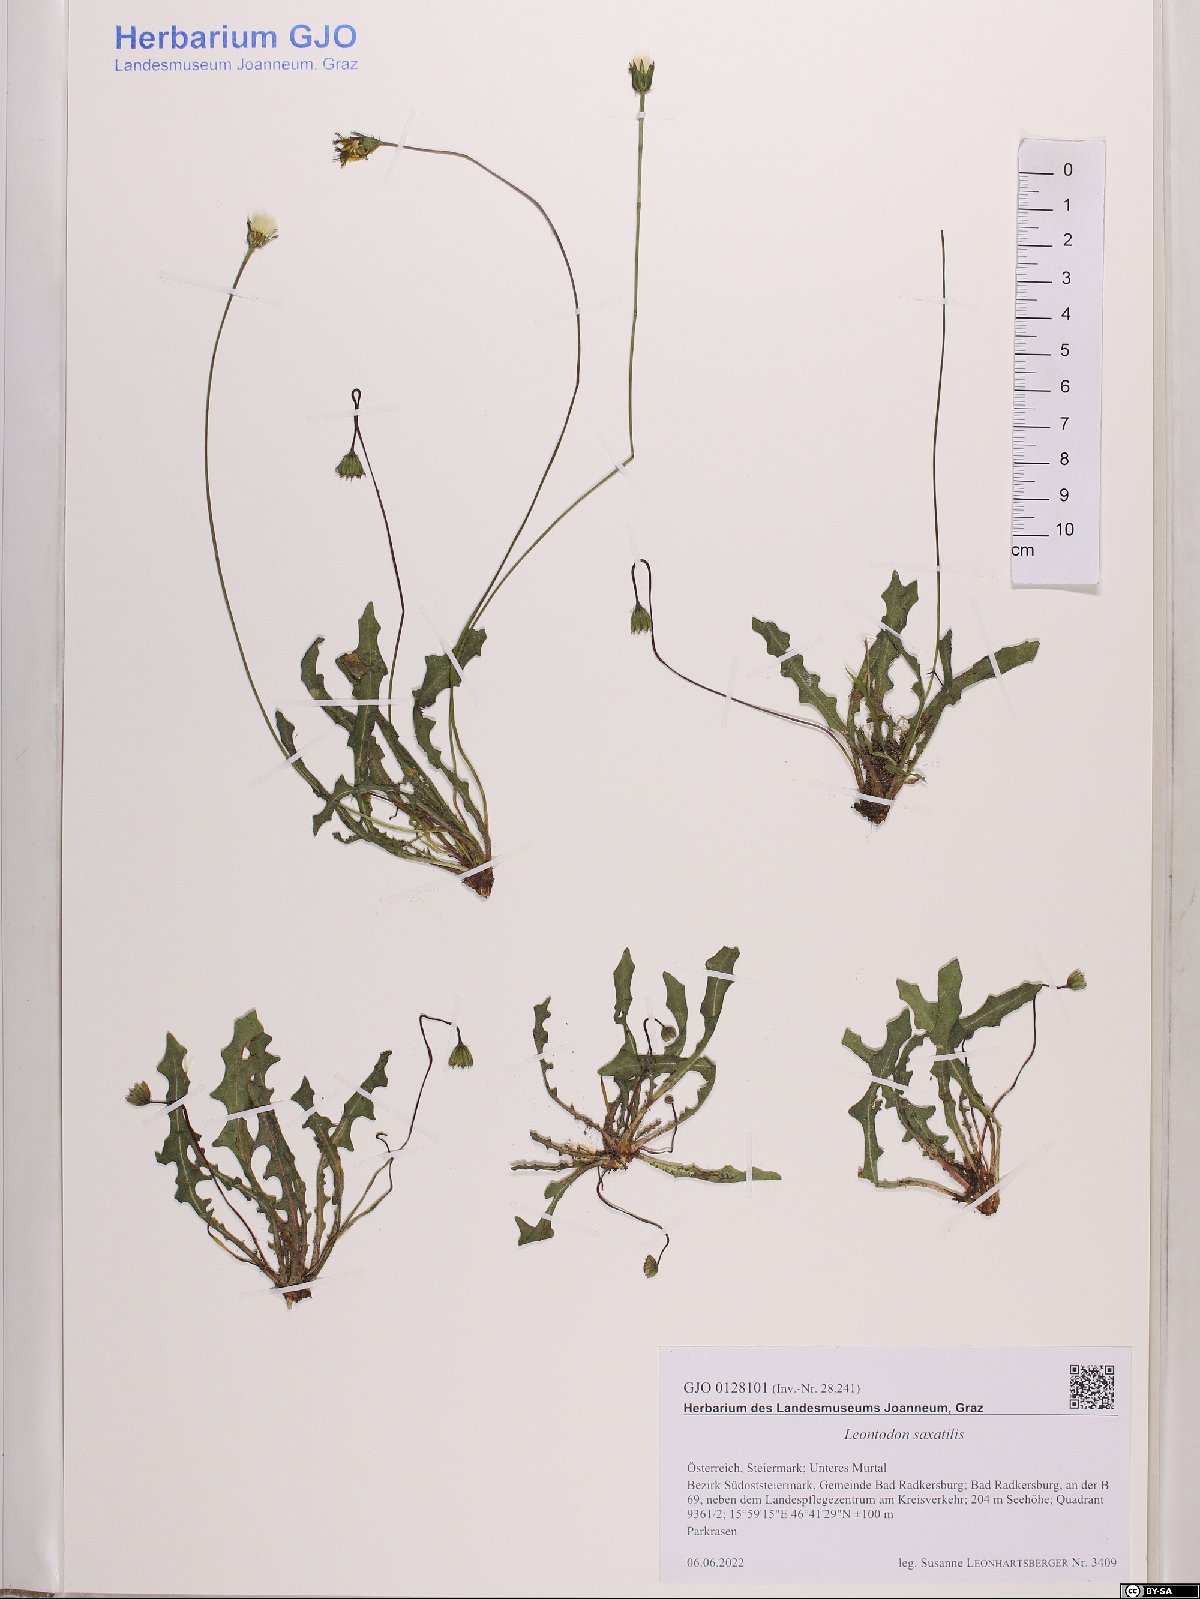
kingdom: Plantae
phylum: Tracheophyta
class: Magnoliopsida
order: Asterales
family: Asteraceae
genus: Thrincia
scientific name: Thrincia saxatilis
